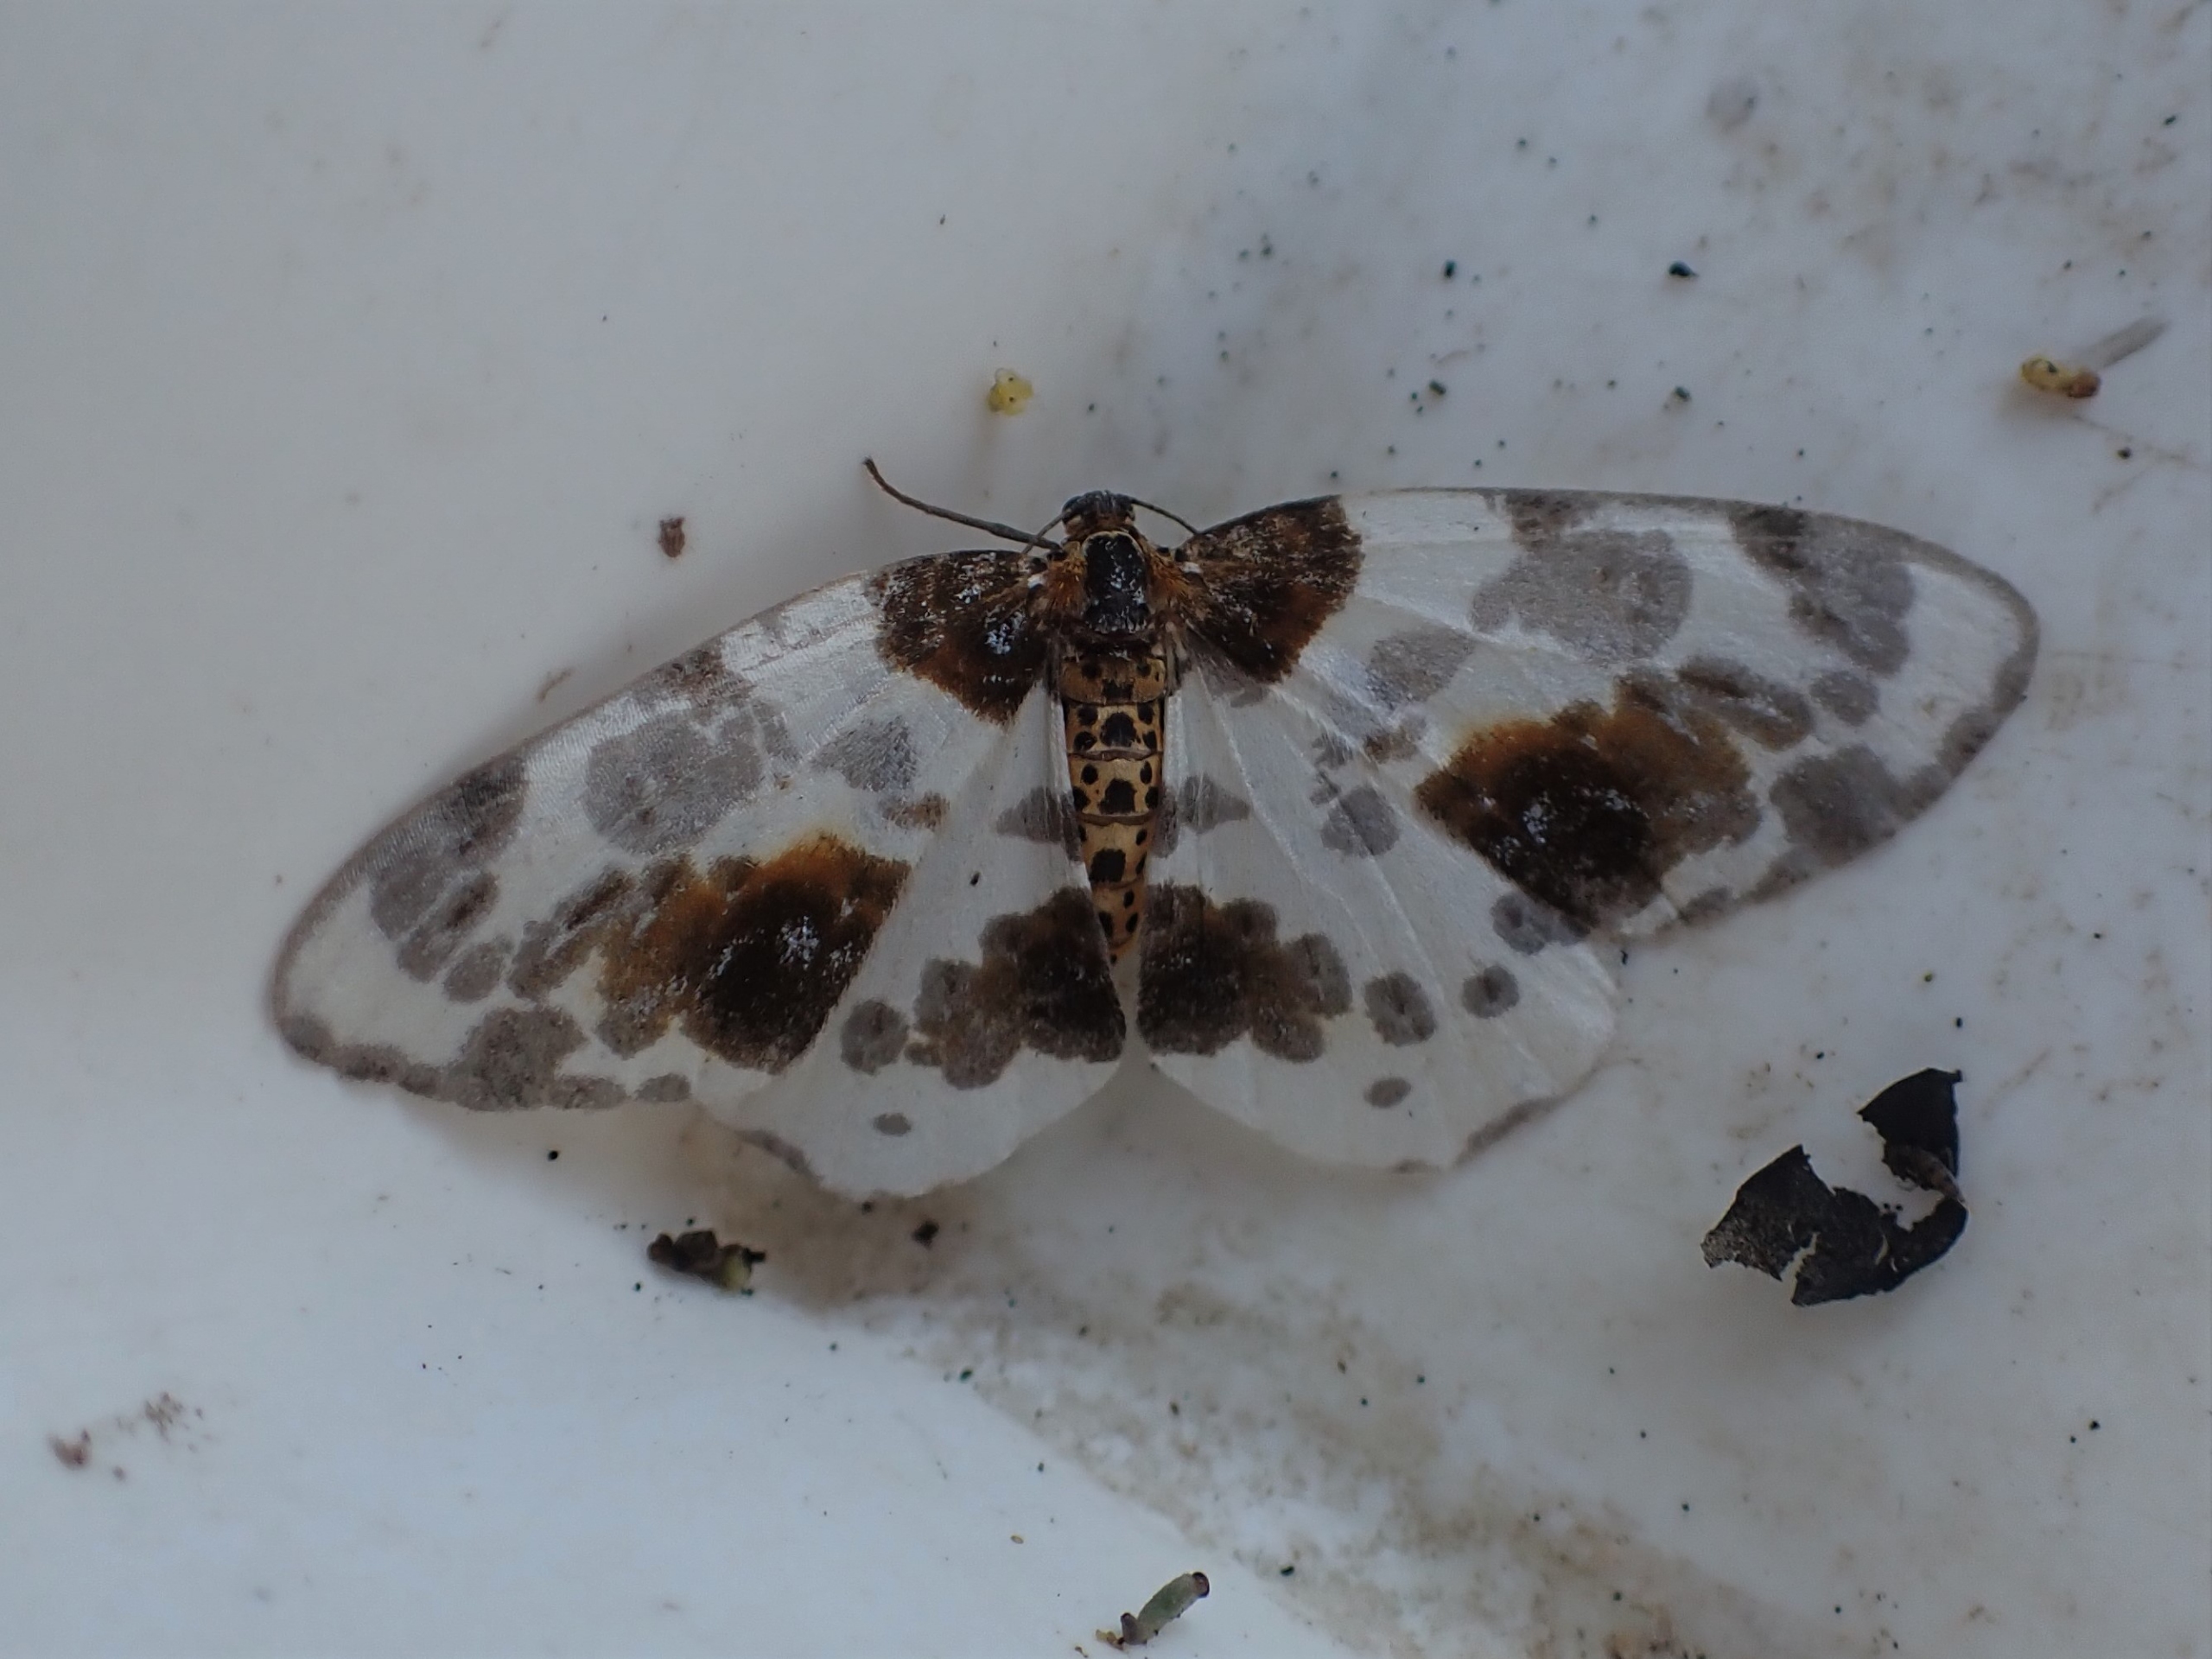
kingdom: Animalia
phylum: Arthropoda
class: Insecta
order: Lepidoptera
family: Geometridae
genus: Abraxas
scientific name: Abraxas sylvata
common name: Elmemåler
